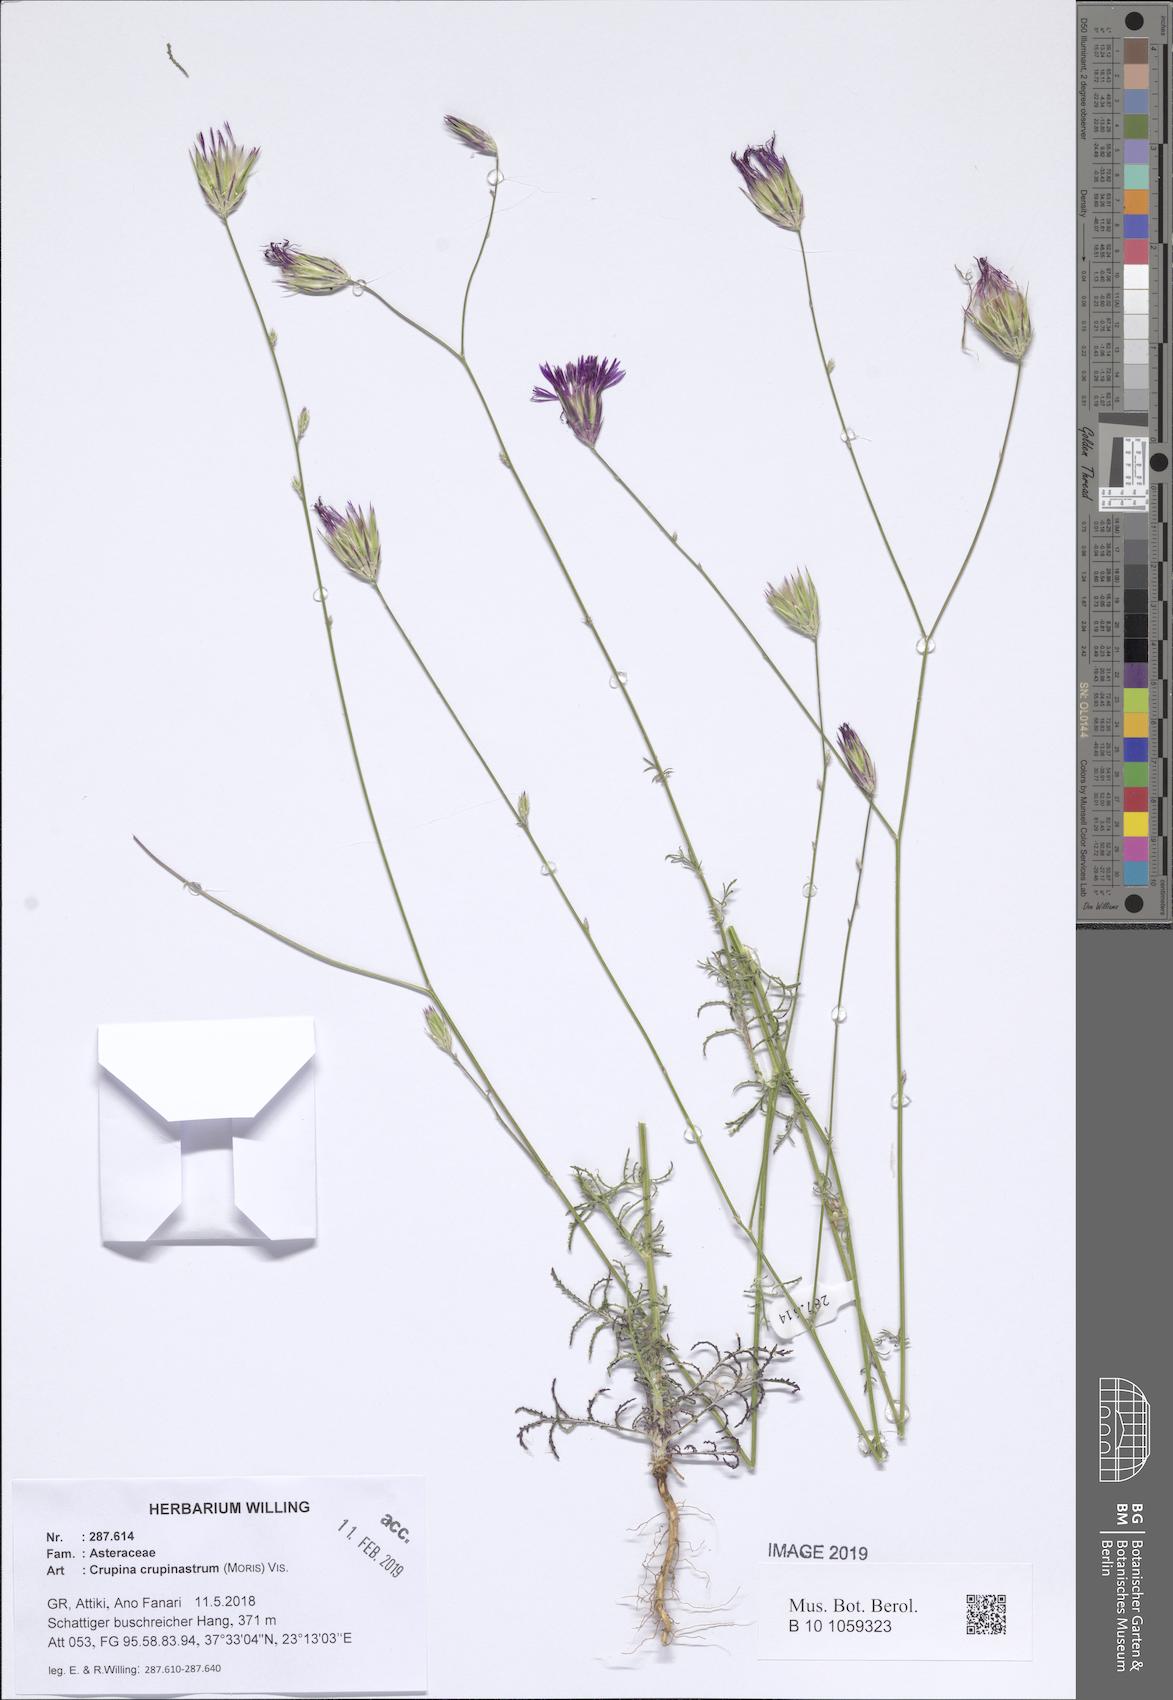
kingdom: Plantae
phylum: Tracheophyta
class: Magnoliopsida
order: Asterales
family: Asteraceae
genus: Crupina
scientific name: Crupina crupinastrum
